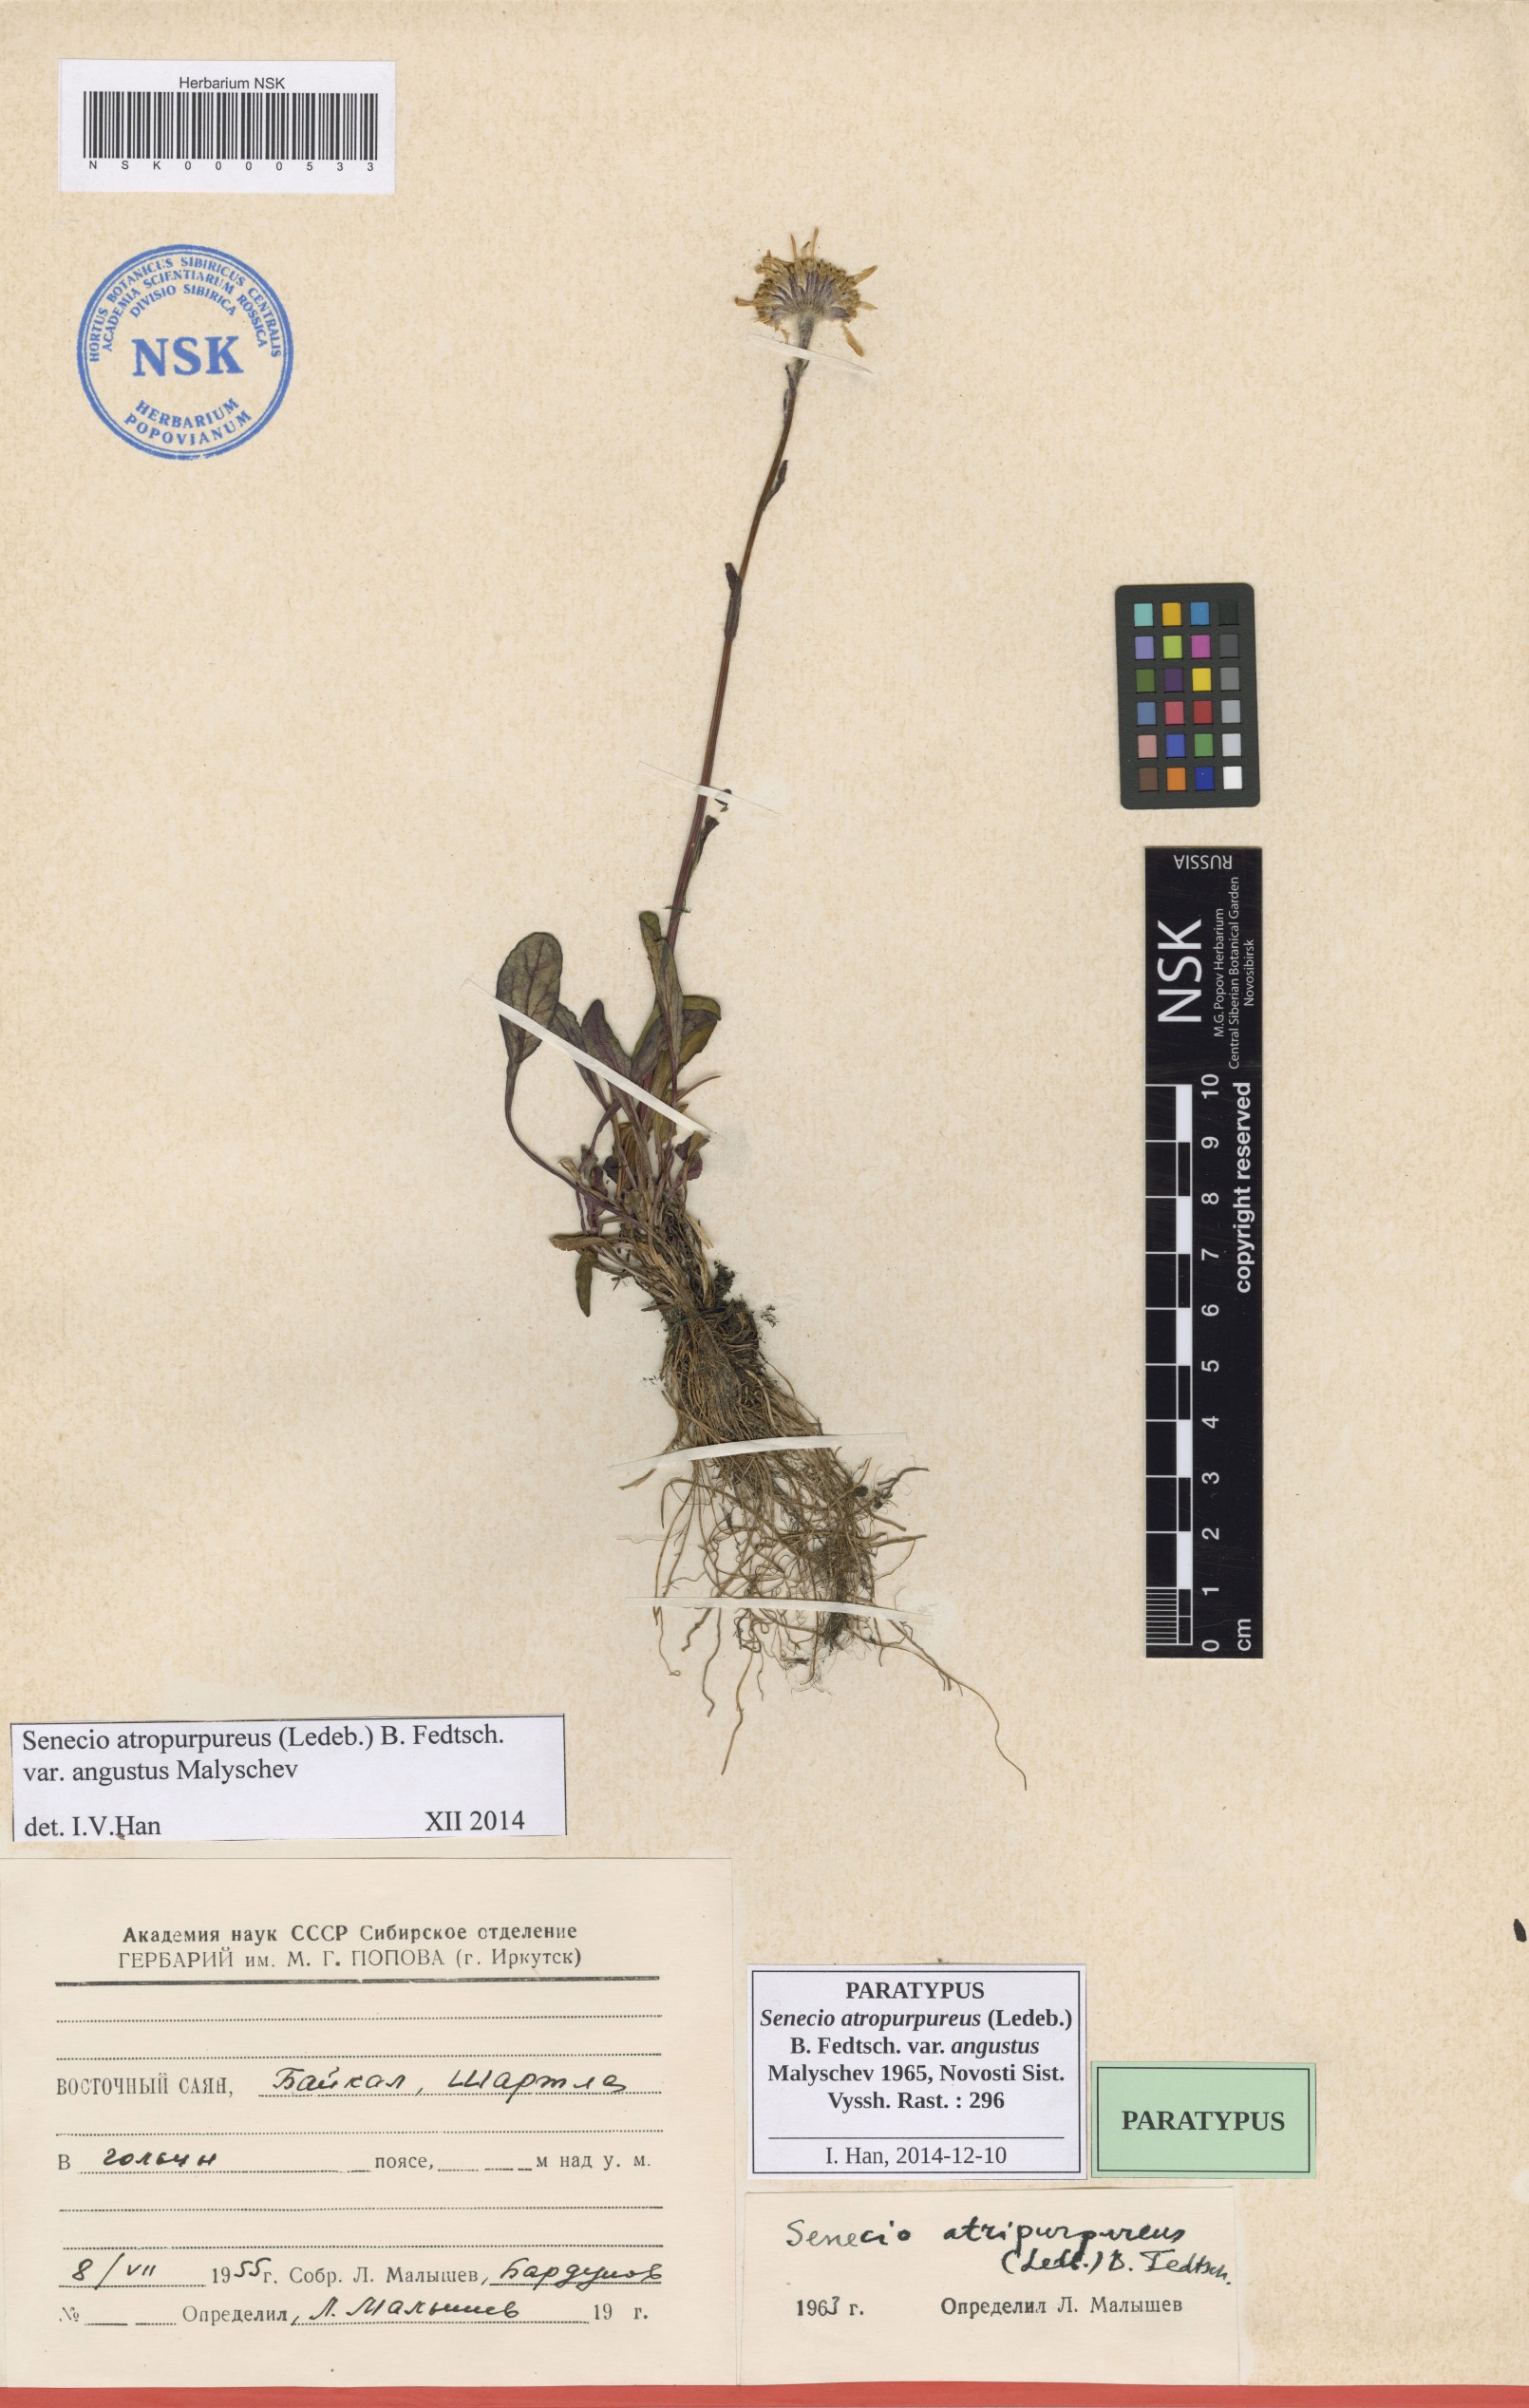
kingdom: Plantae
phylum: Tracheophyta
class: Magnoliopsida
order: Asterales
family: Asteraceae
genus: Tephroseris
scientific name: Tephroseris integrifolia
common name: Field fleawort
